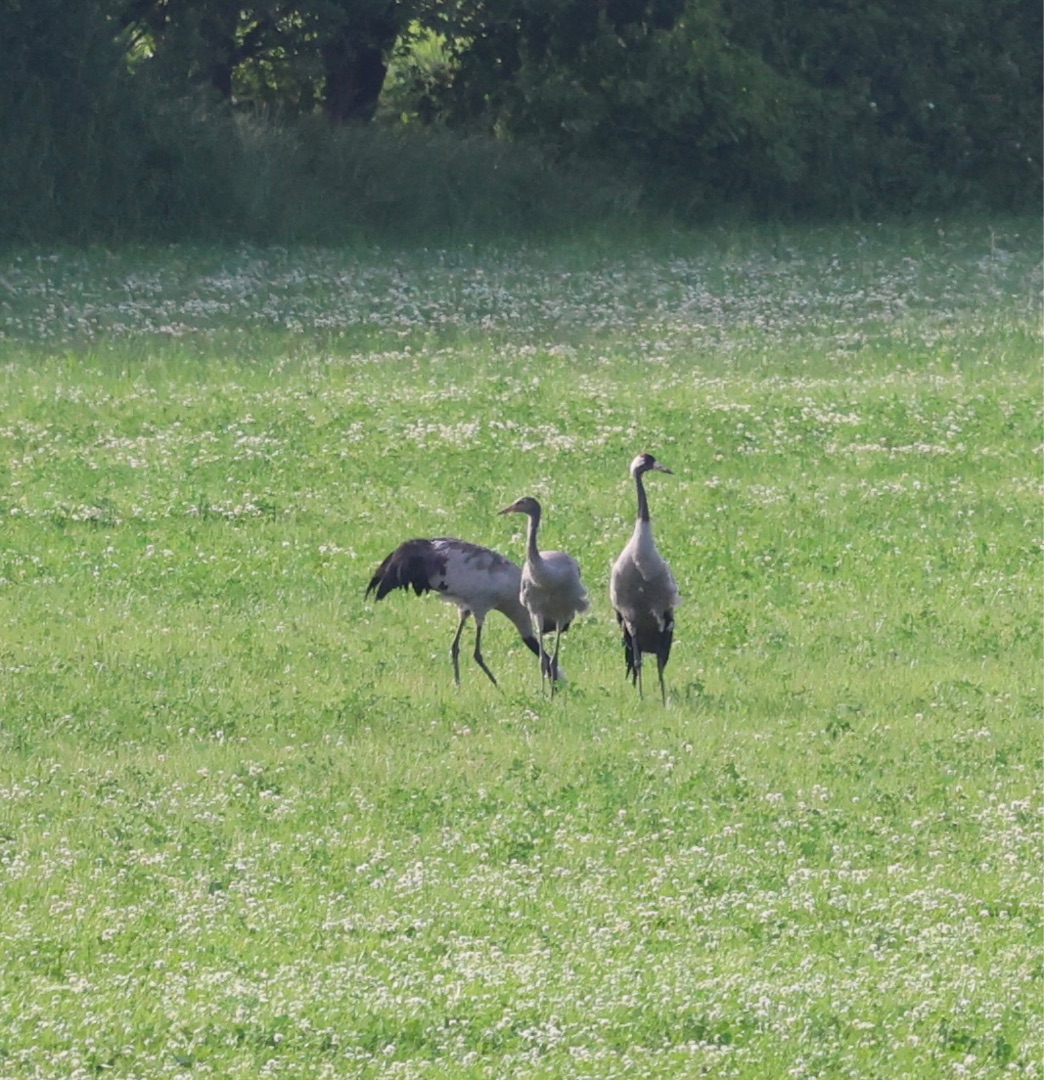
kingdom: Animalia
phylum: Chordata
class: Aves
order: Gruiformes
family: Gruidae
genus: Grus
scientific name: Grus grus
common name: Trane
